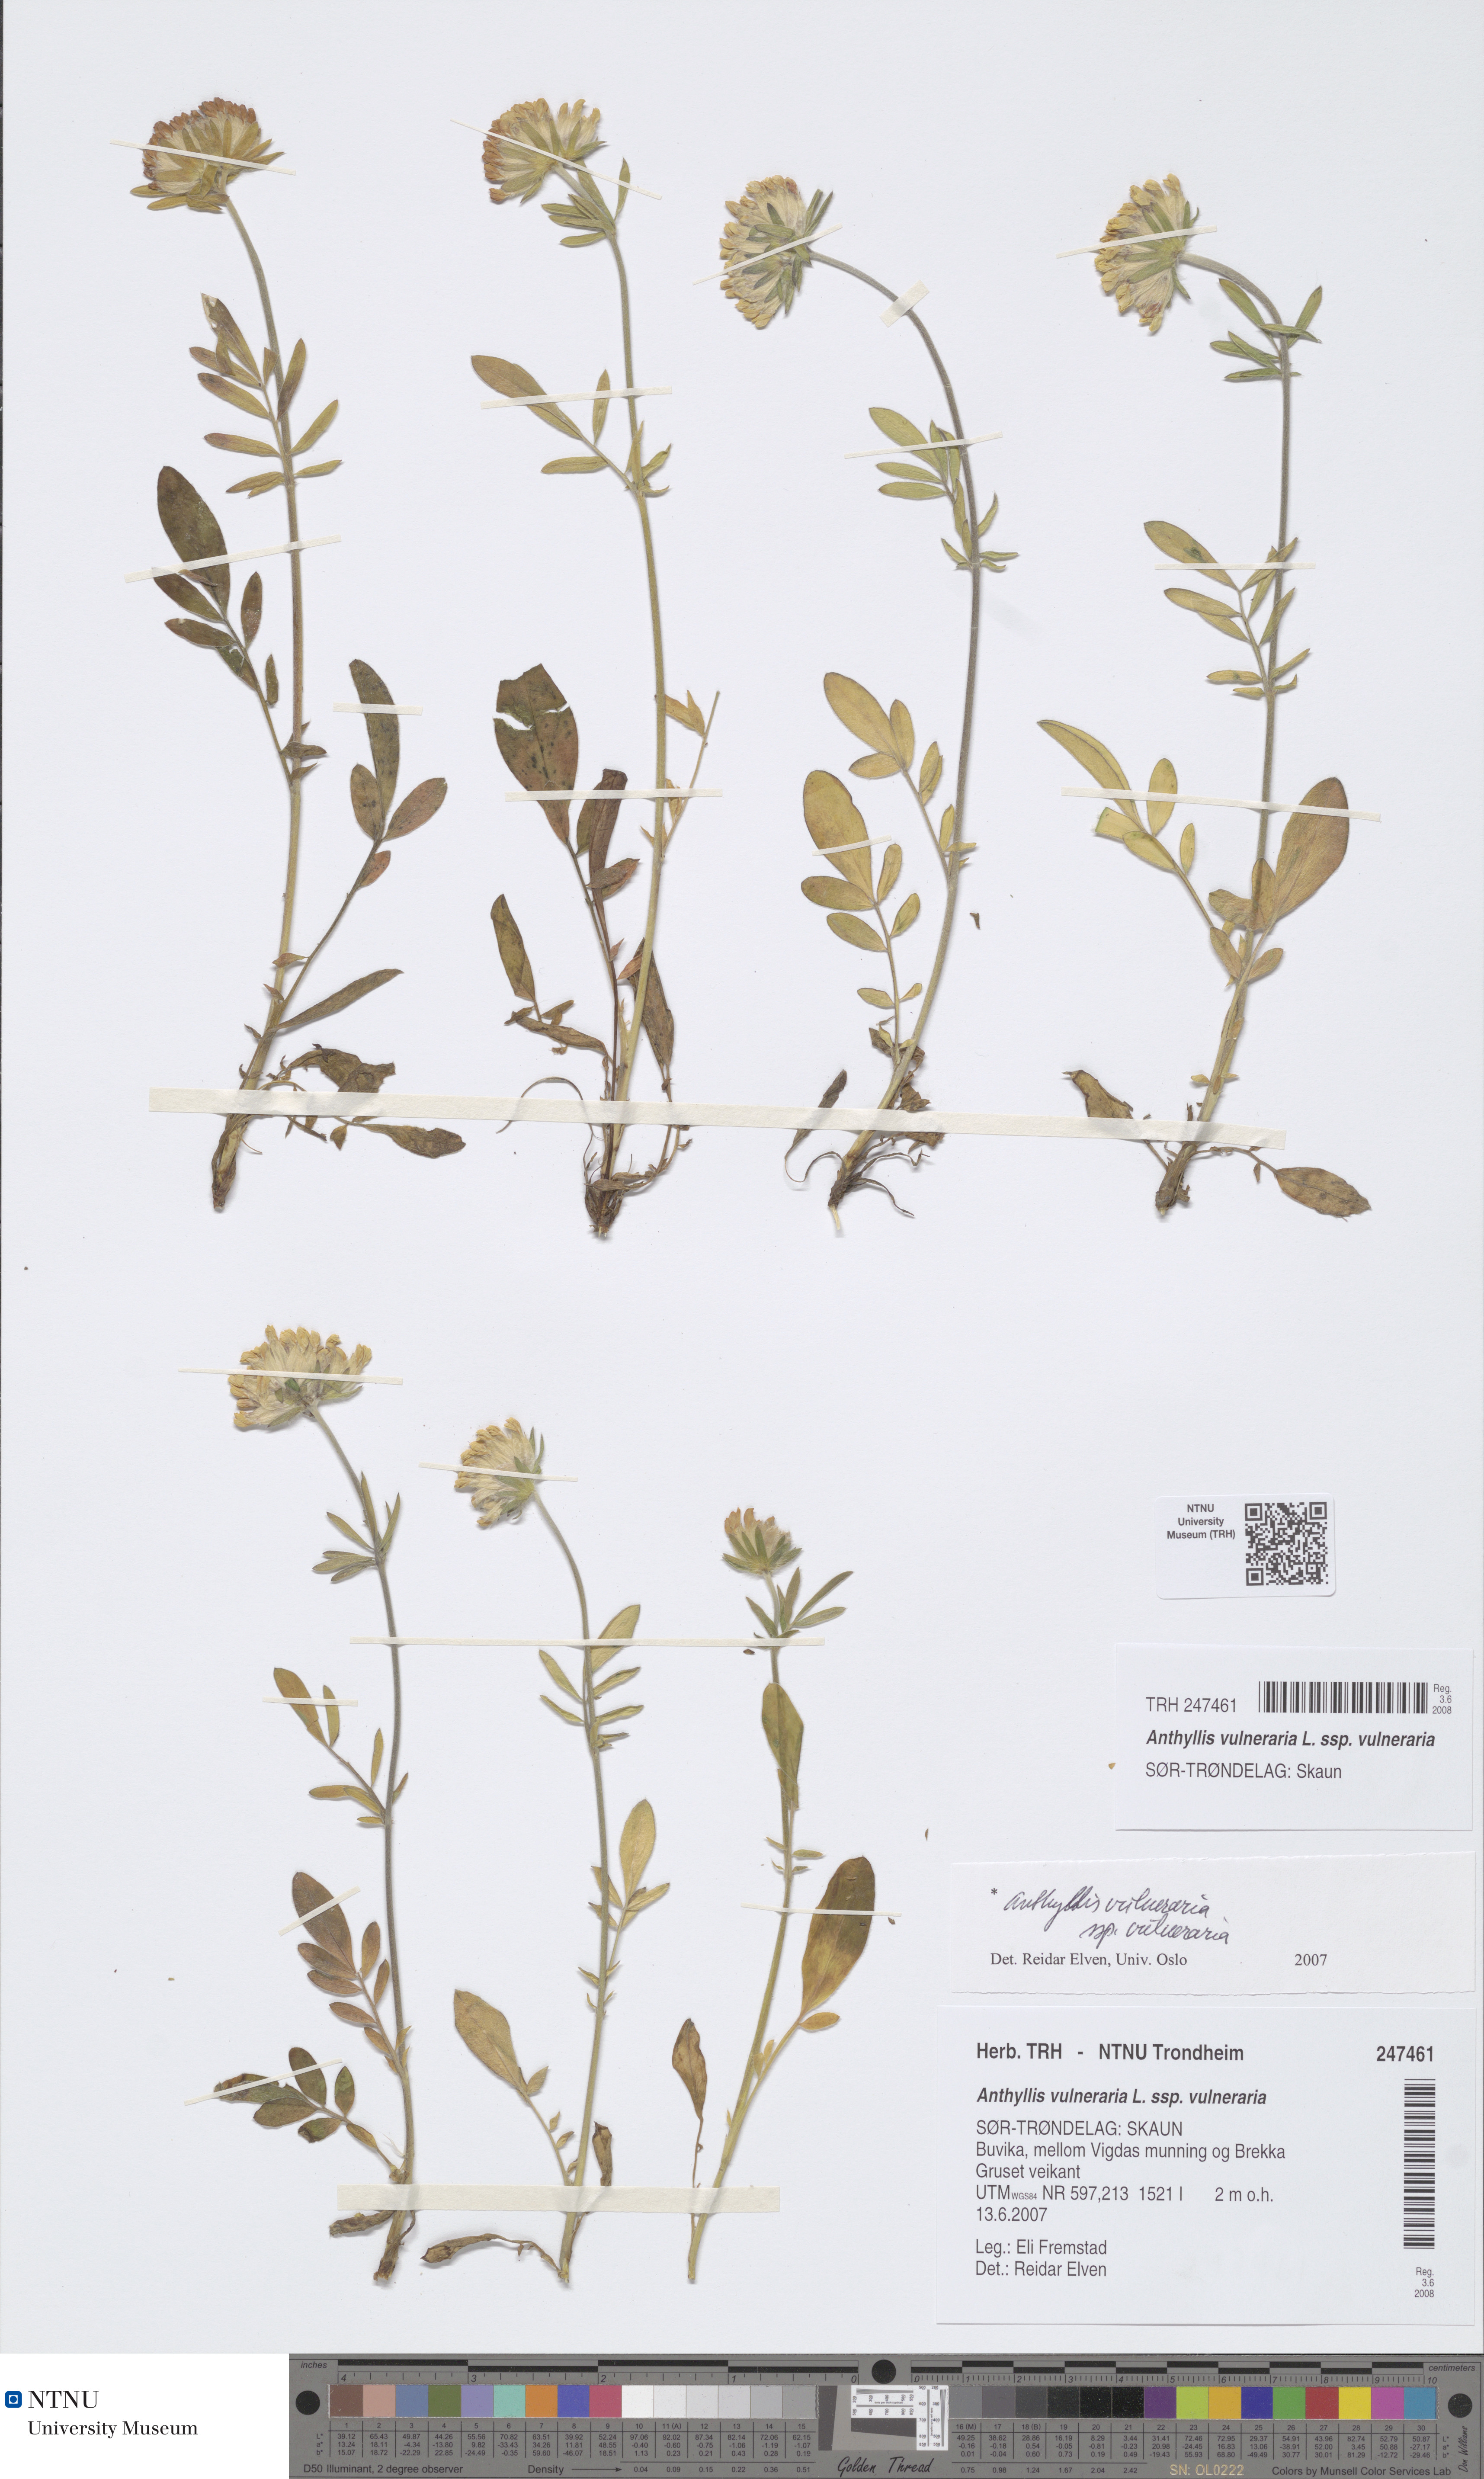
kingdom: Plantae
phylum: Tracheophyta
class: Magnoliopsida
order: Fabales
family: Fabaceae
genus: Anthyllis
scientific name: Anthyllis vulneraria
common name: Kidney vetch
